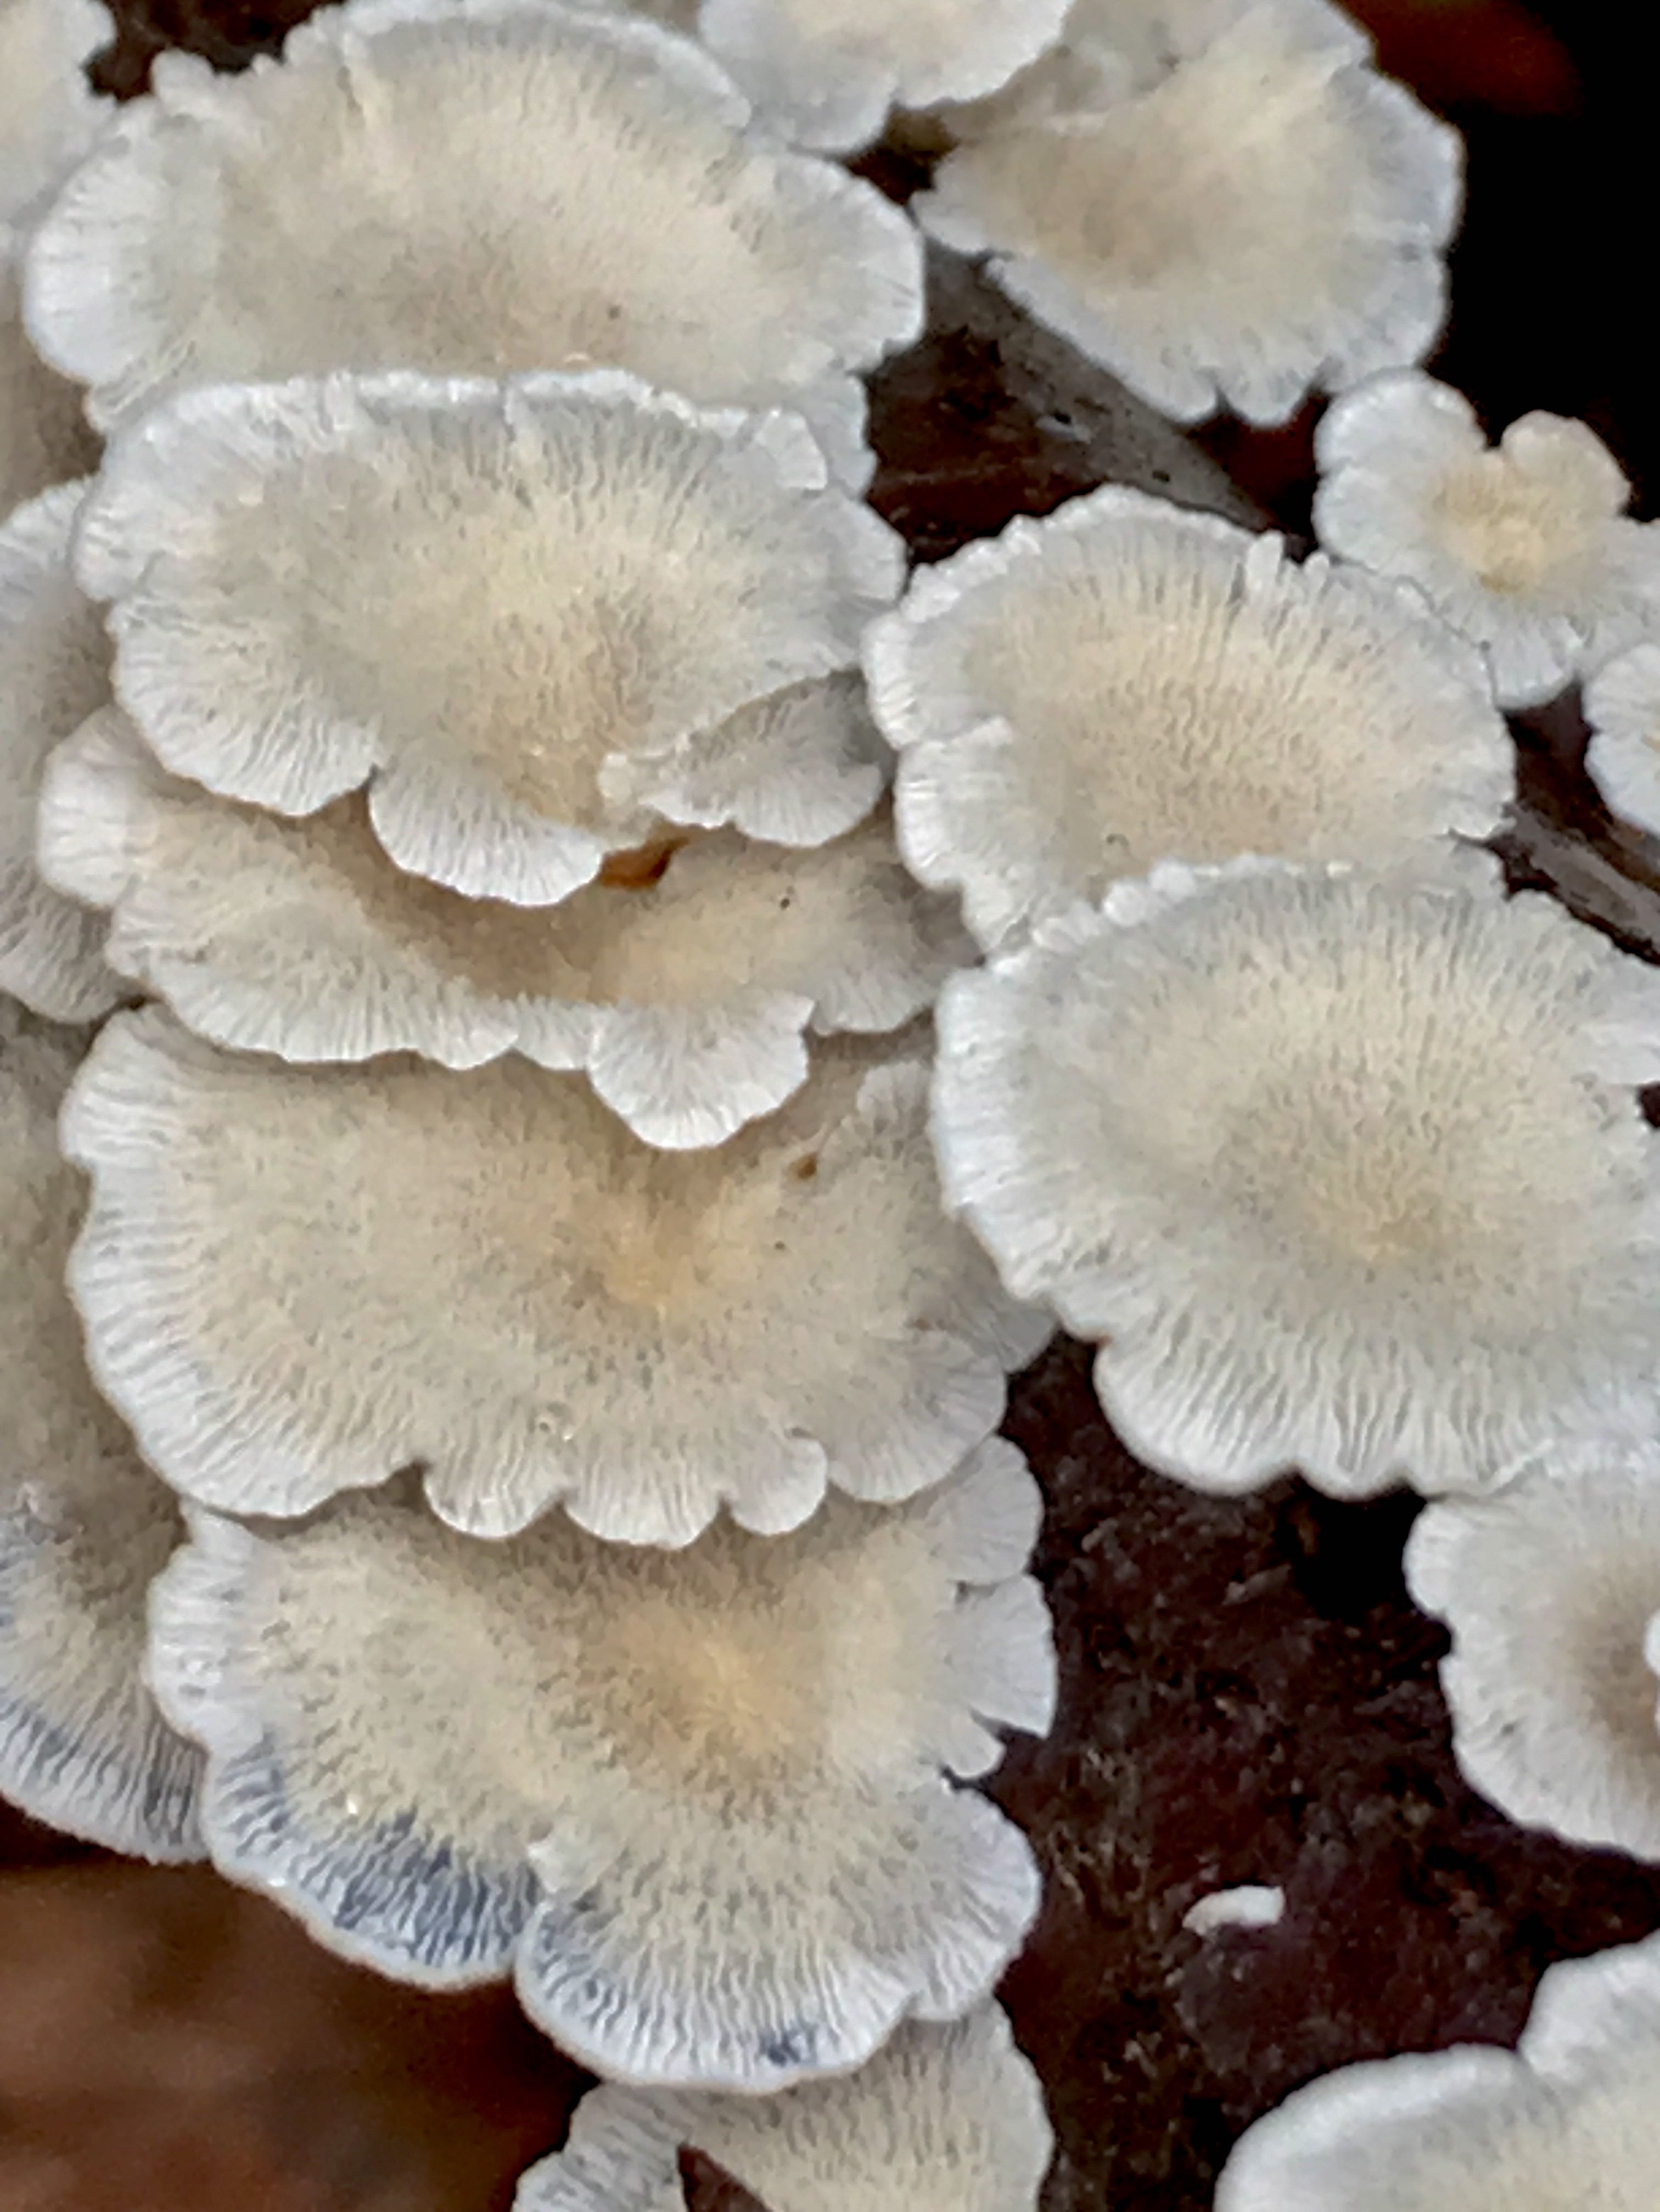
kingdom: Fungi
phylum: Basidiomycota
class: Agaricomycetes
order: Amylocorticiales
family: Amylocorticiaceae
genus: Plicaturopsis
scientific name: Plicaturopsis crispa
